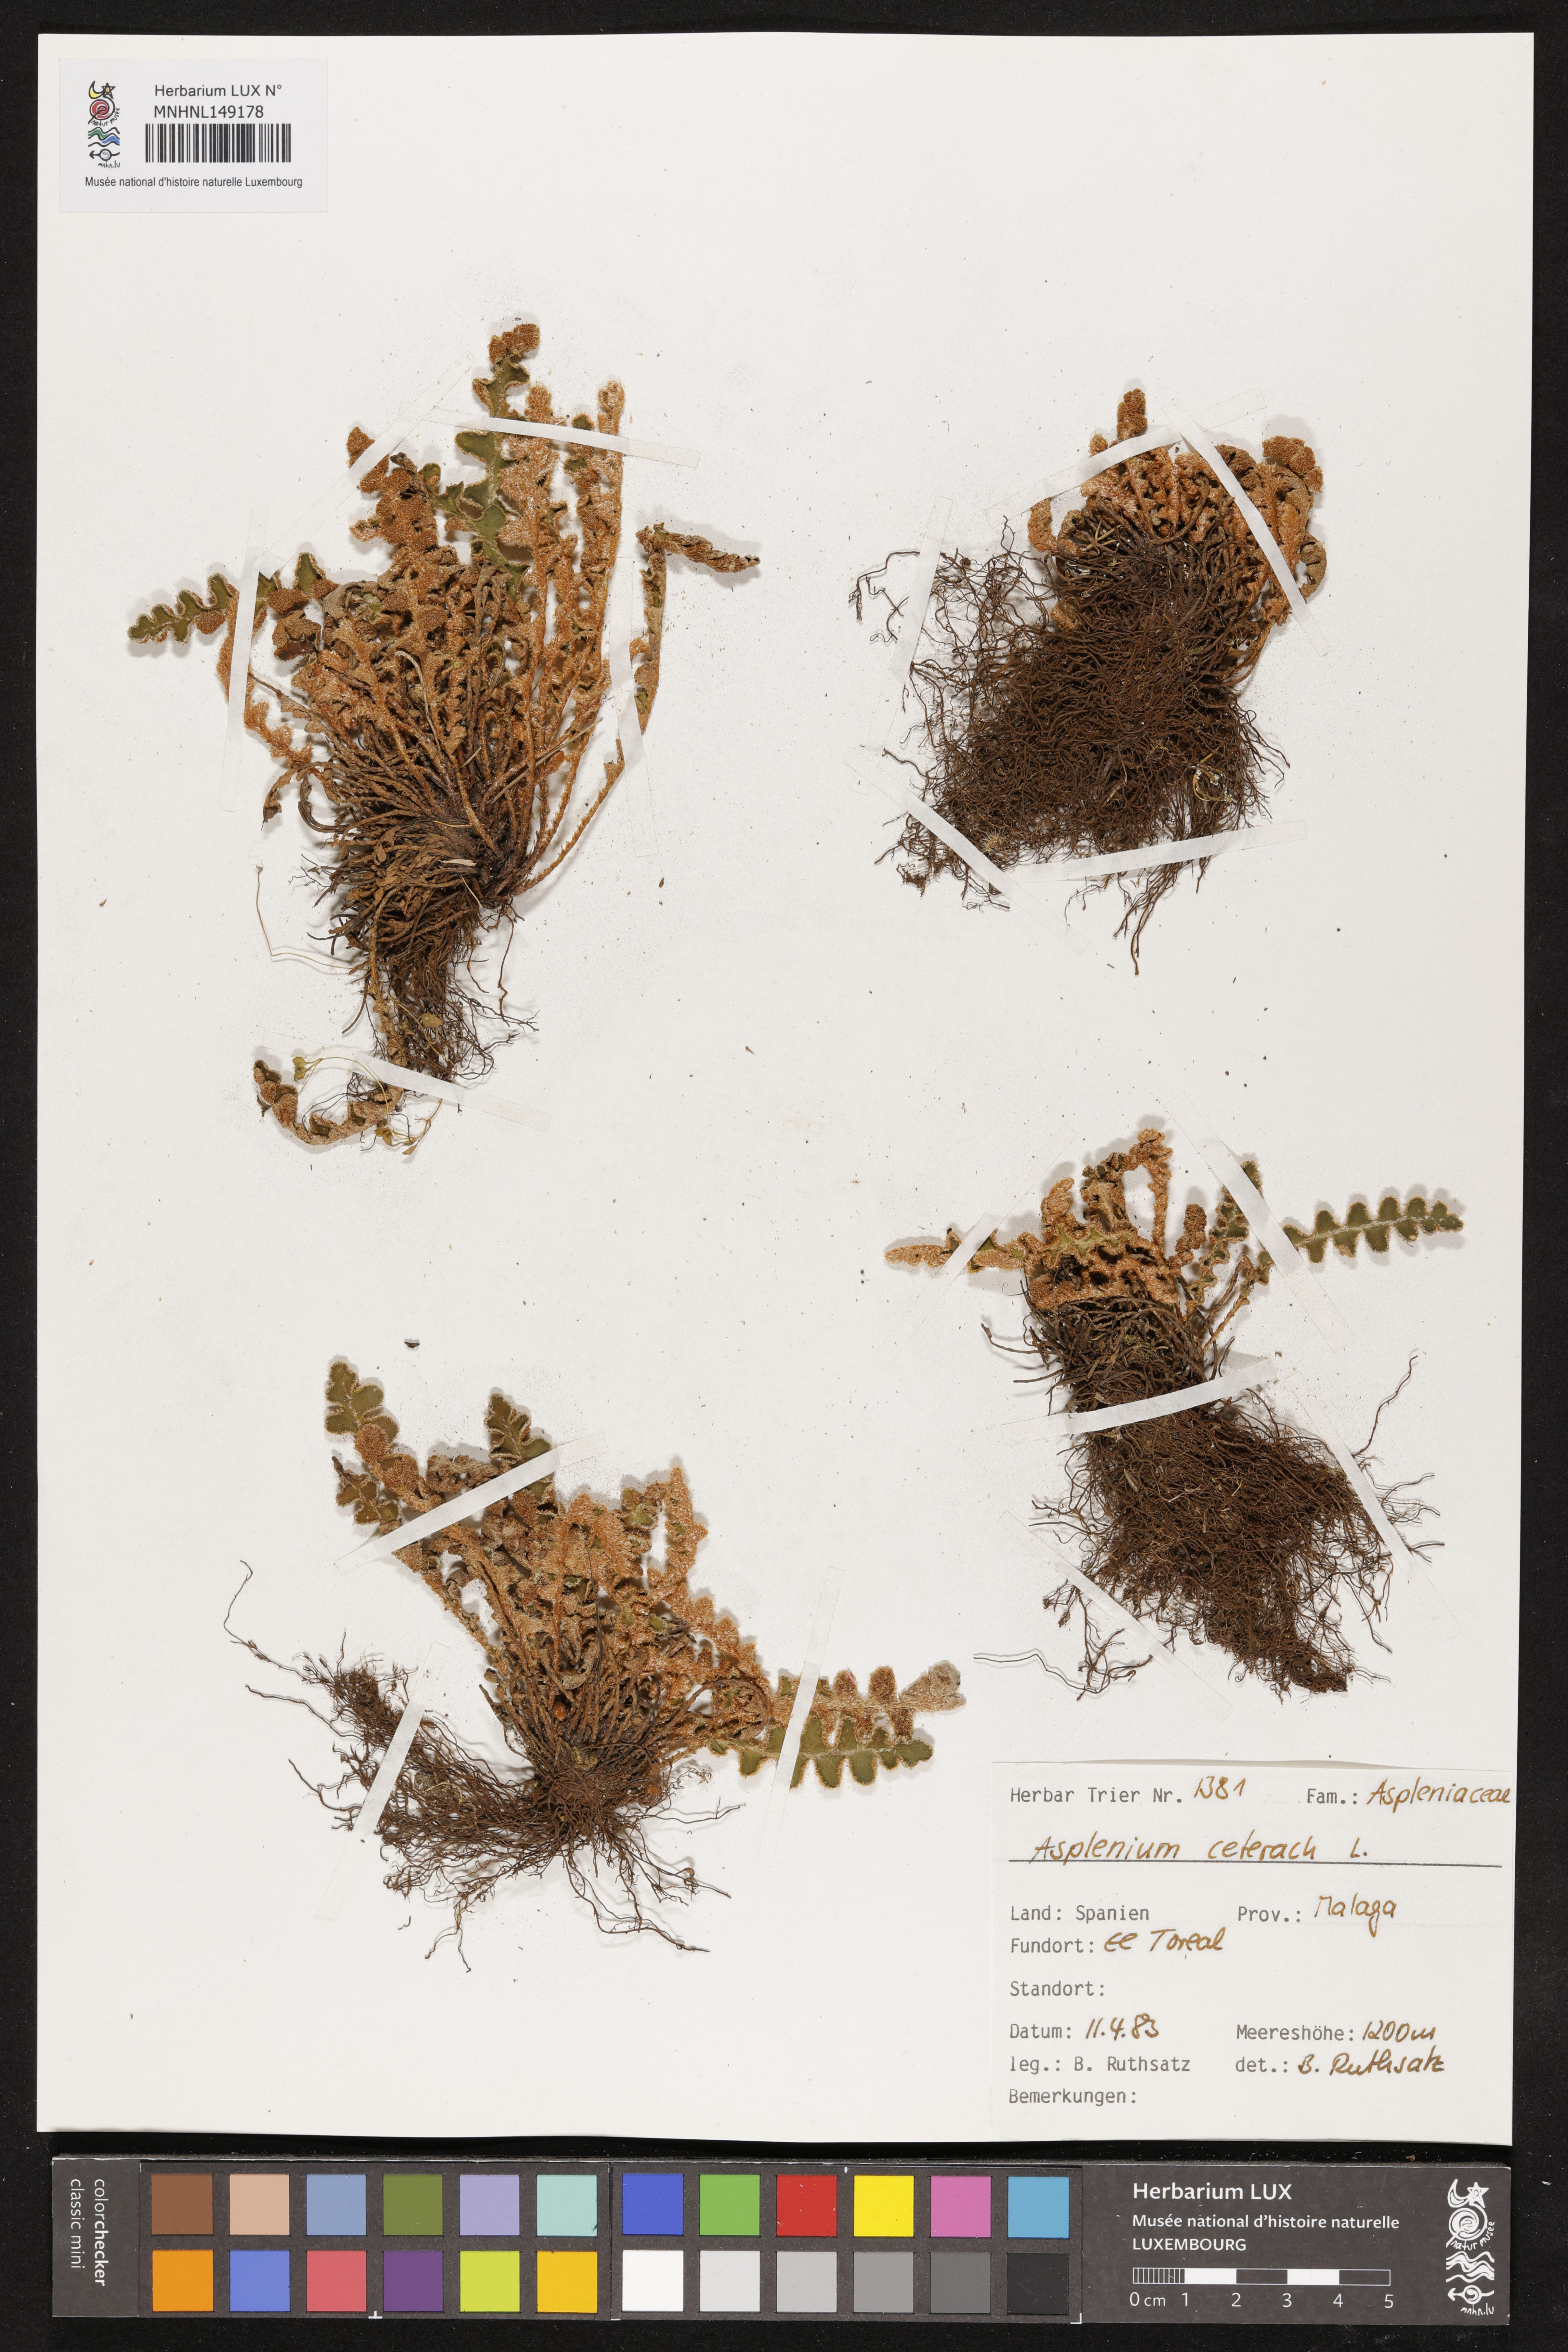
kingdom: Plantae
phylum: Tracheophyta
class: Polypodiopsida
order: Polypodiales
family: Aspleniaceae
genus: Asplenium
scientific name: Asplenium ceterach
